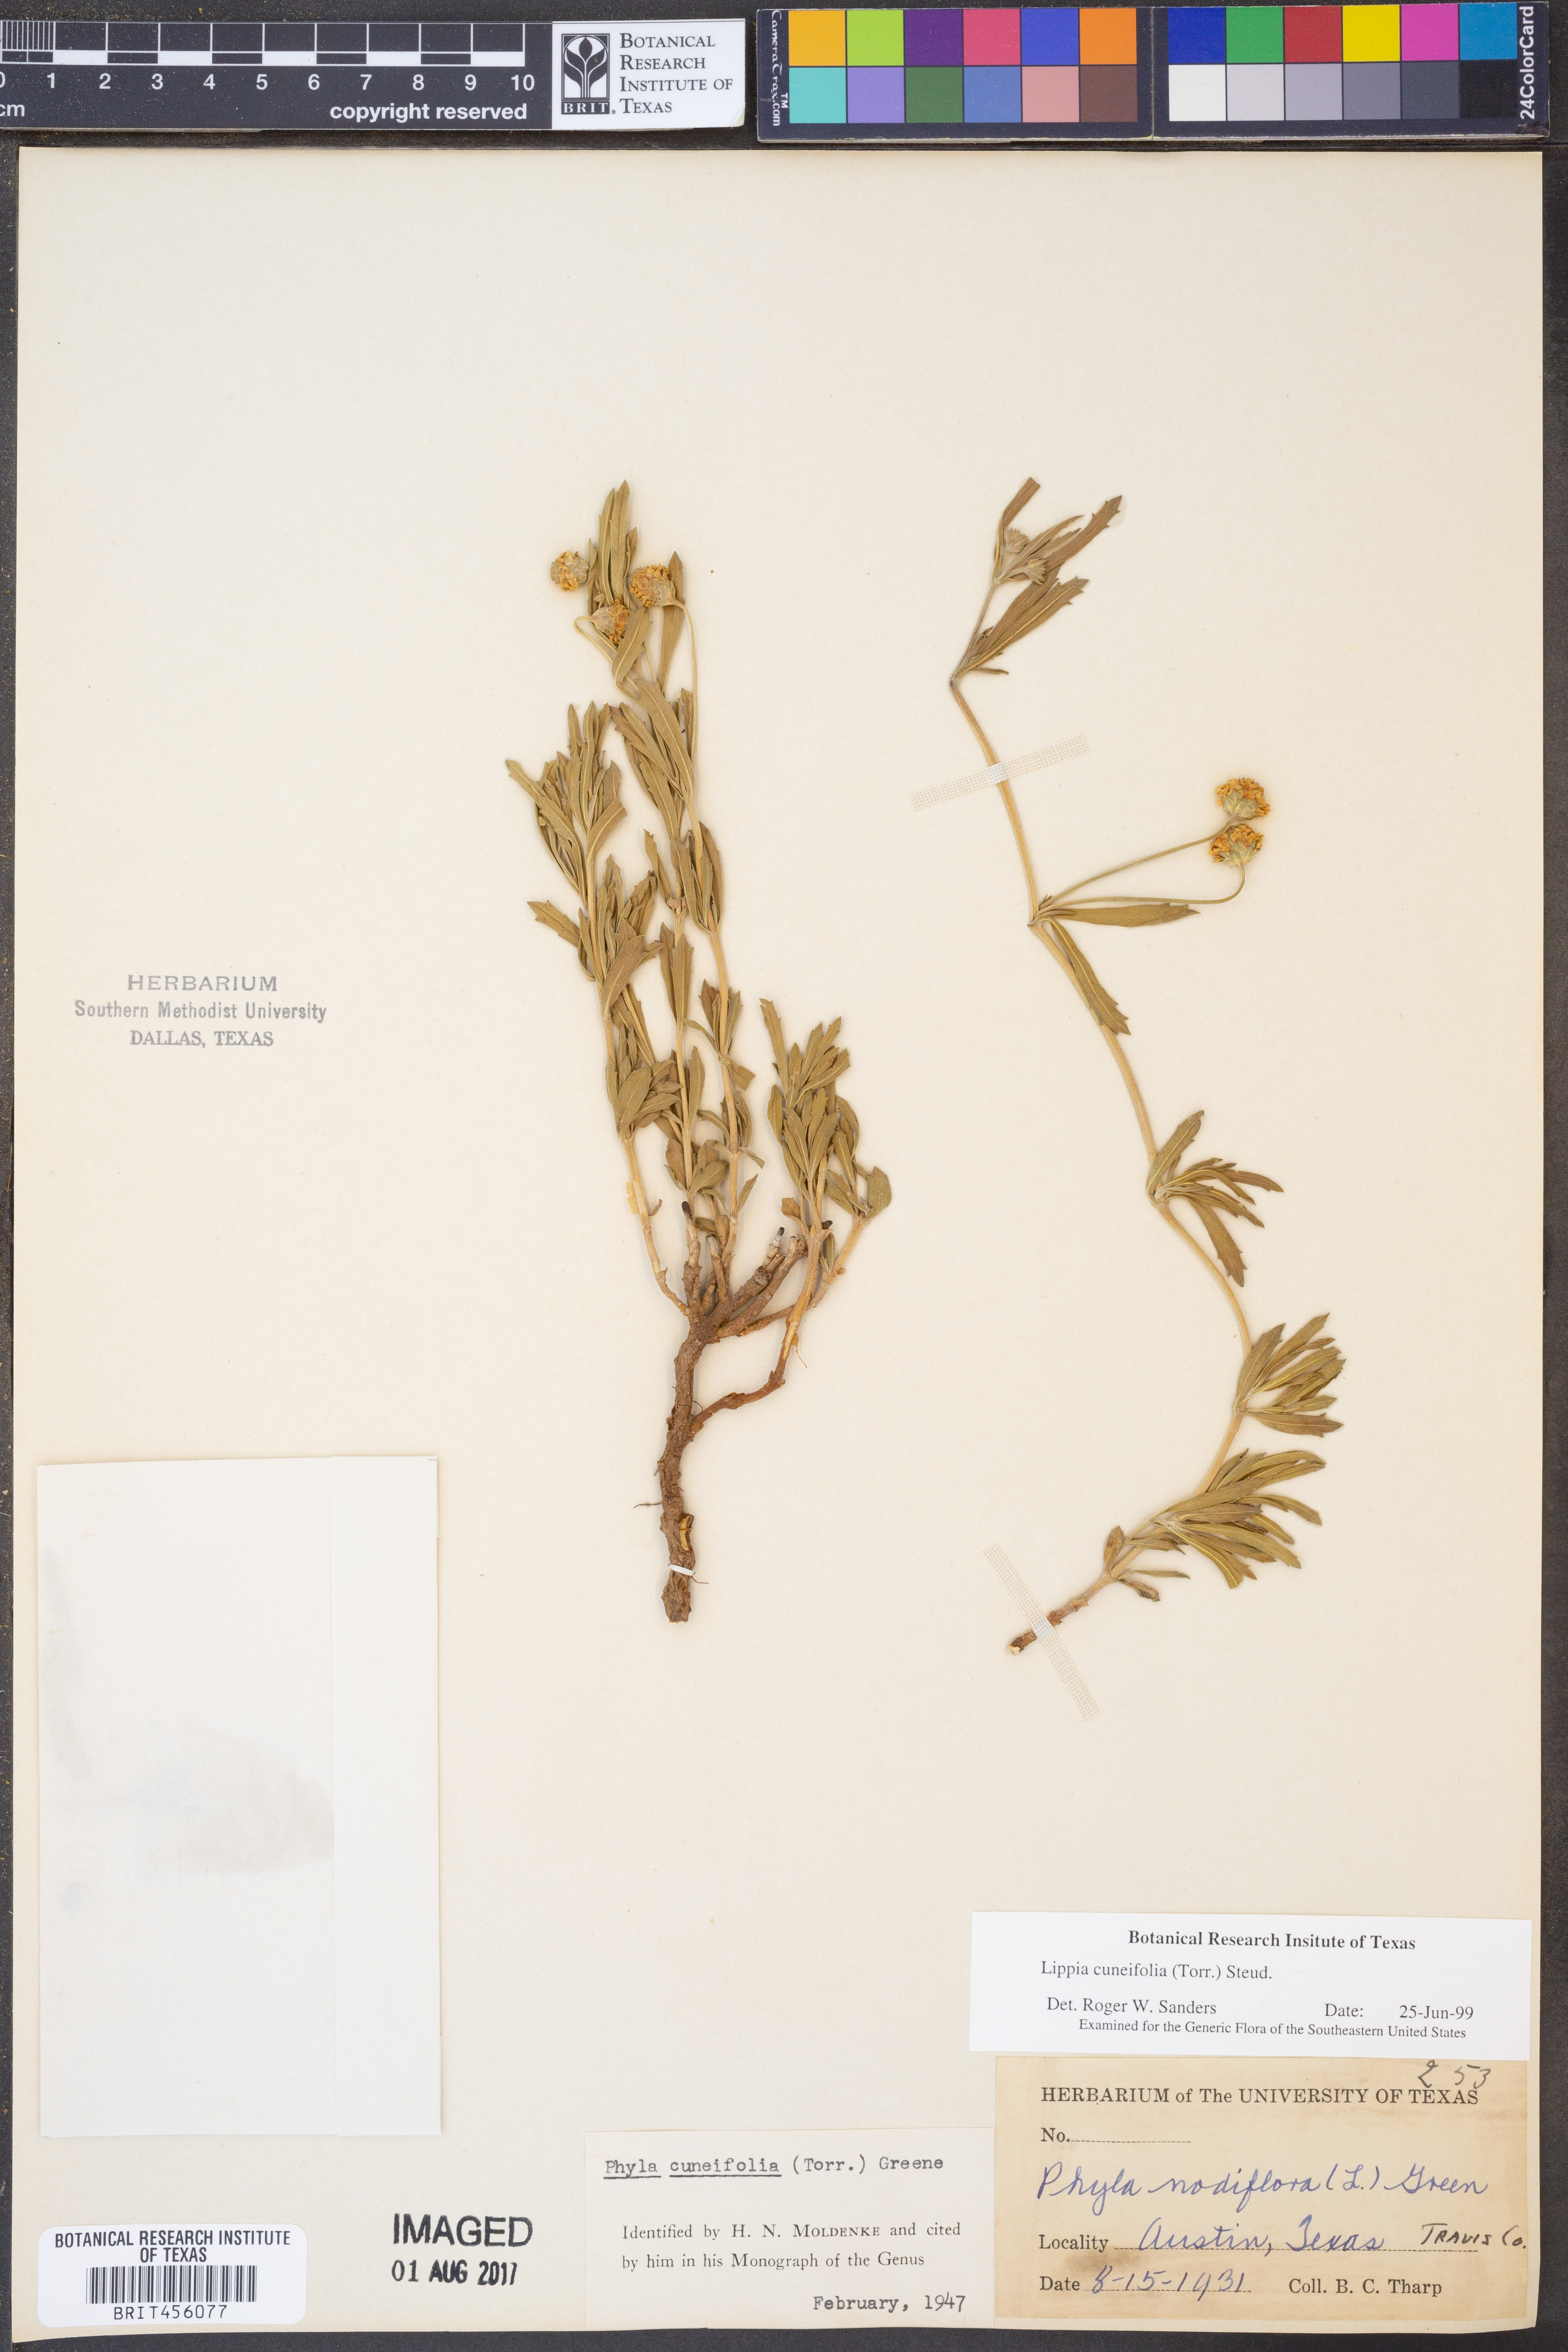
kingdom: Plantae
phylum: Tracheophyta
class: Magnoliopsida
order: Lamiales
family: Verbenaceae
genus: Phyla
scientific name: Phyla cuneifolia
